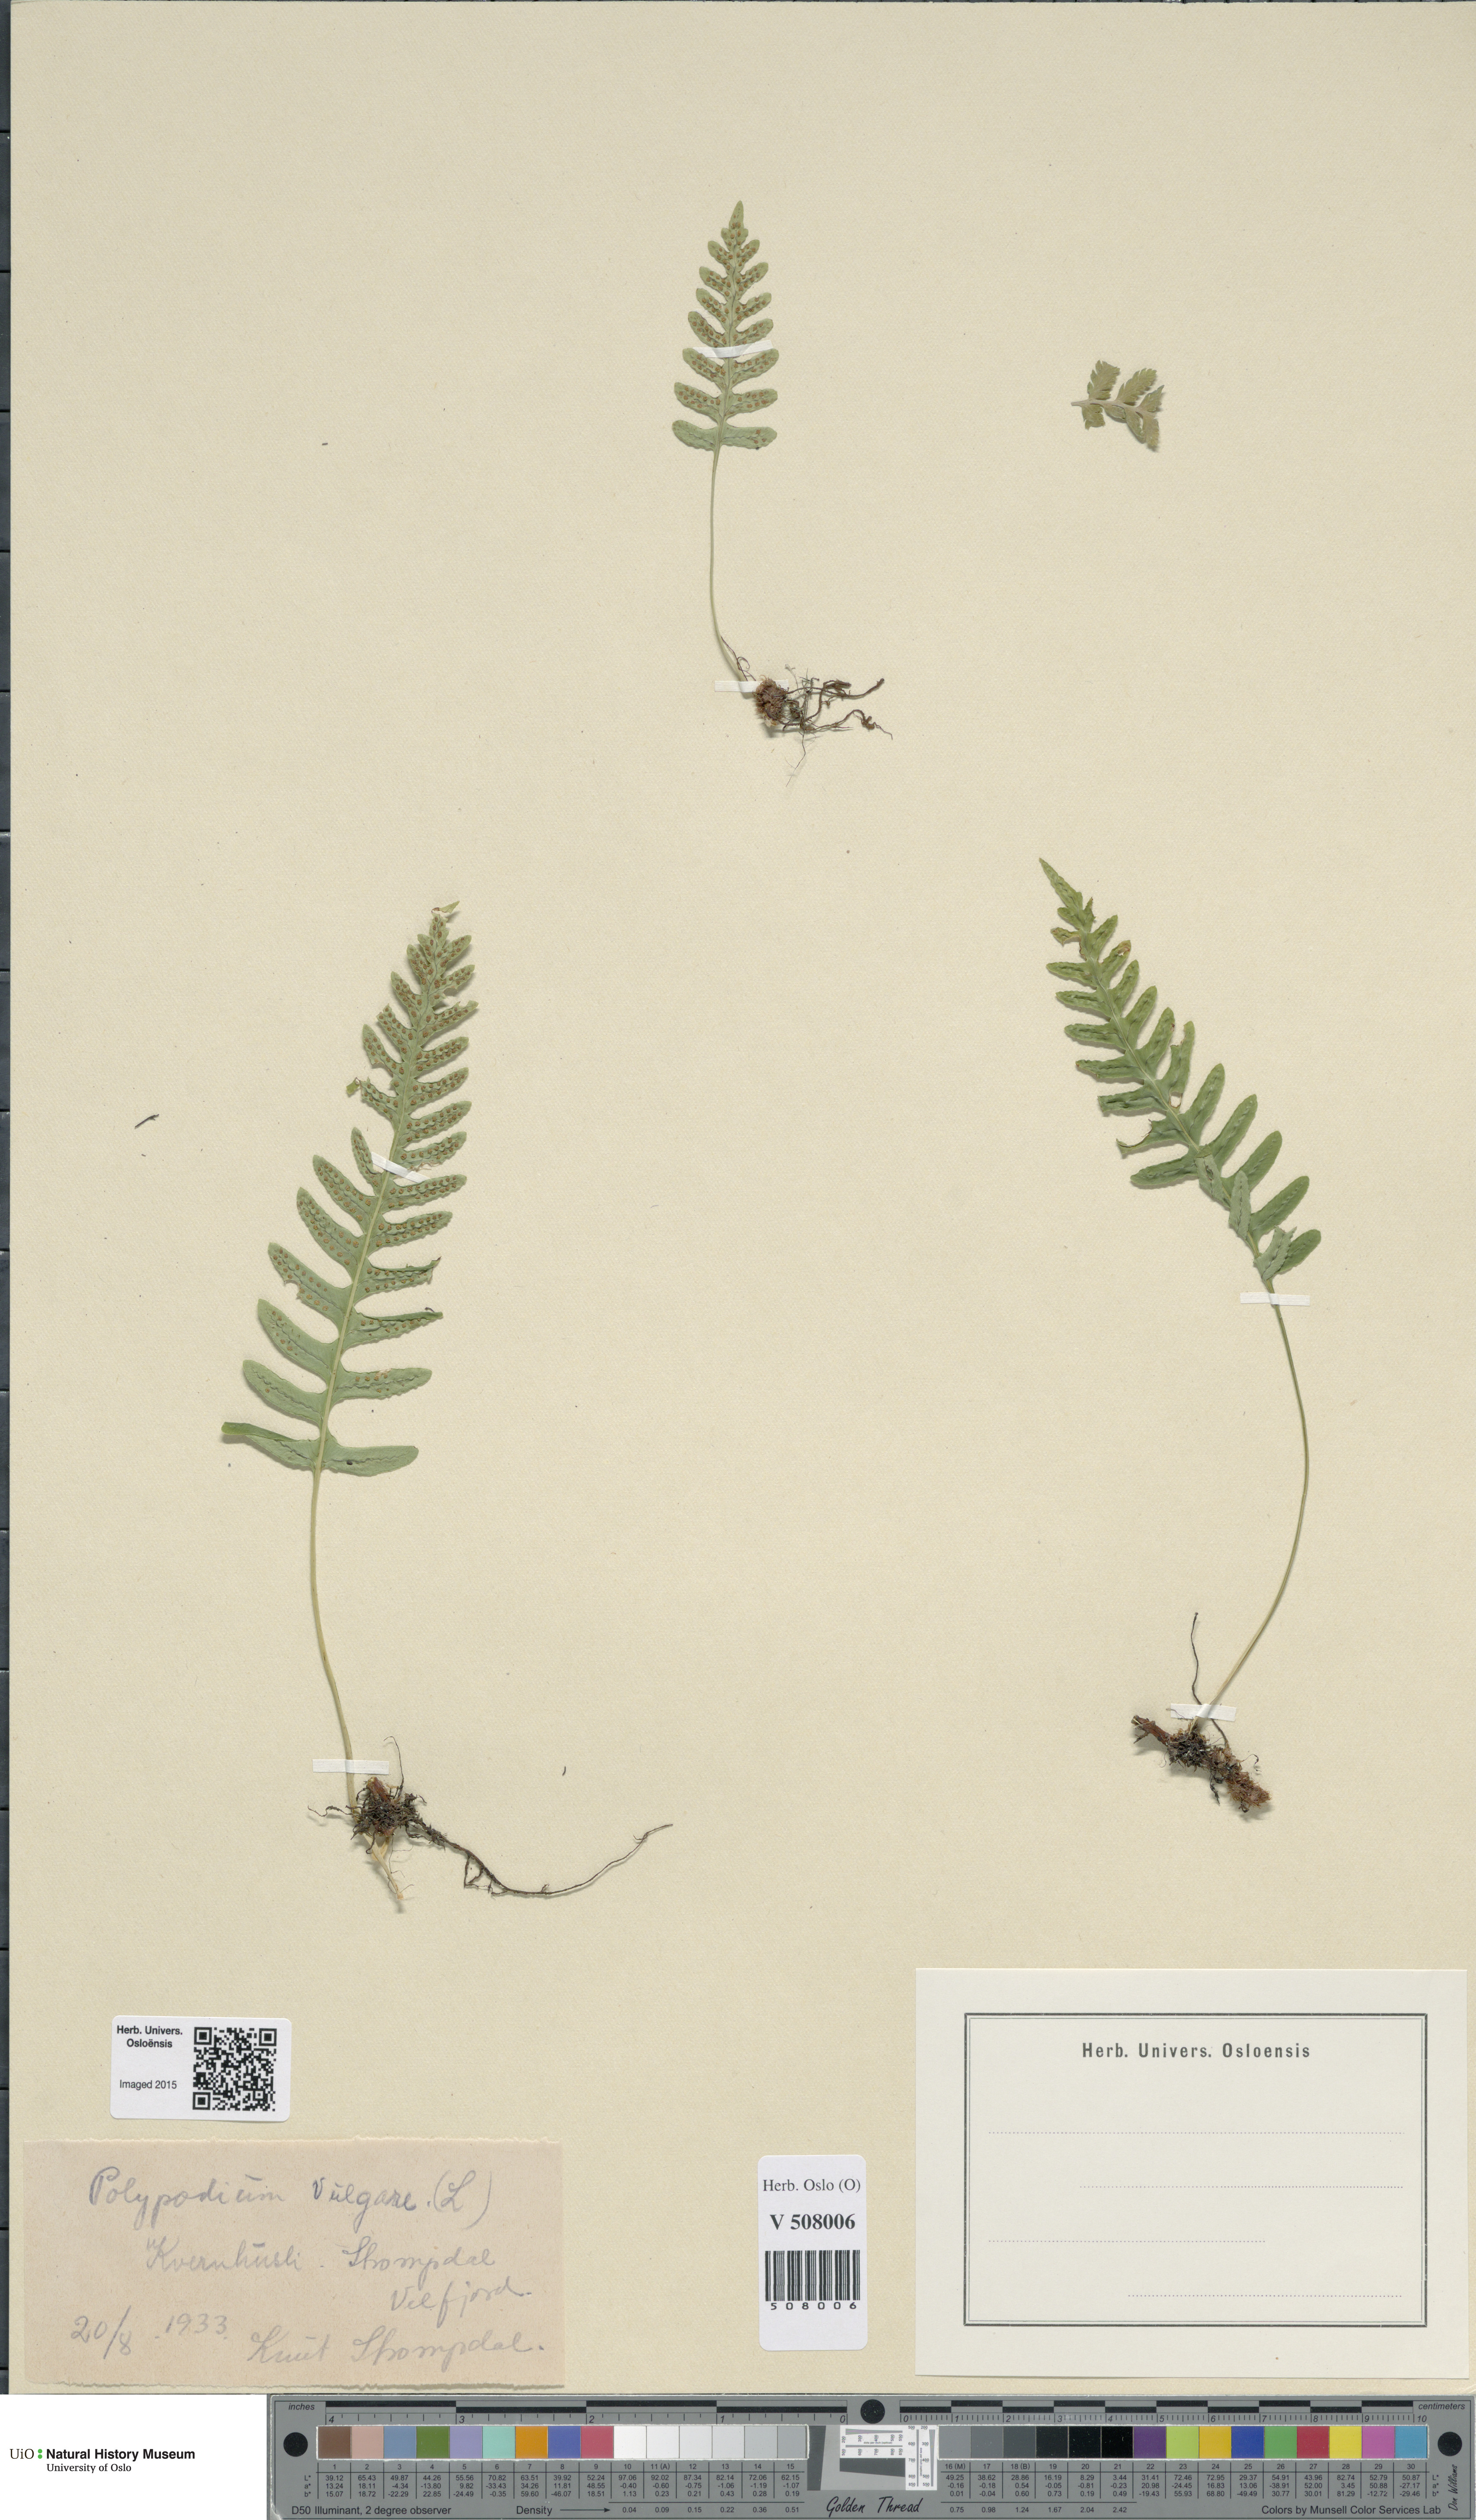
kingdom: Plantae
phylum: Tracheophyta
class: Polypodiopsida
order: Polypodiales
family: Polypodiaceae
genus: Polypodium
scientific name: Polypodium vulgare
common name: Common polypody
